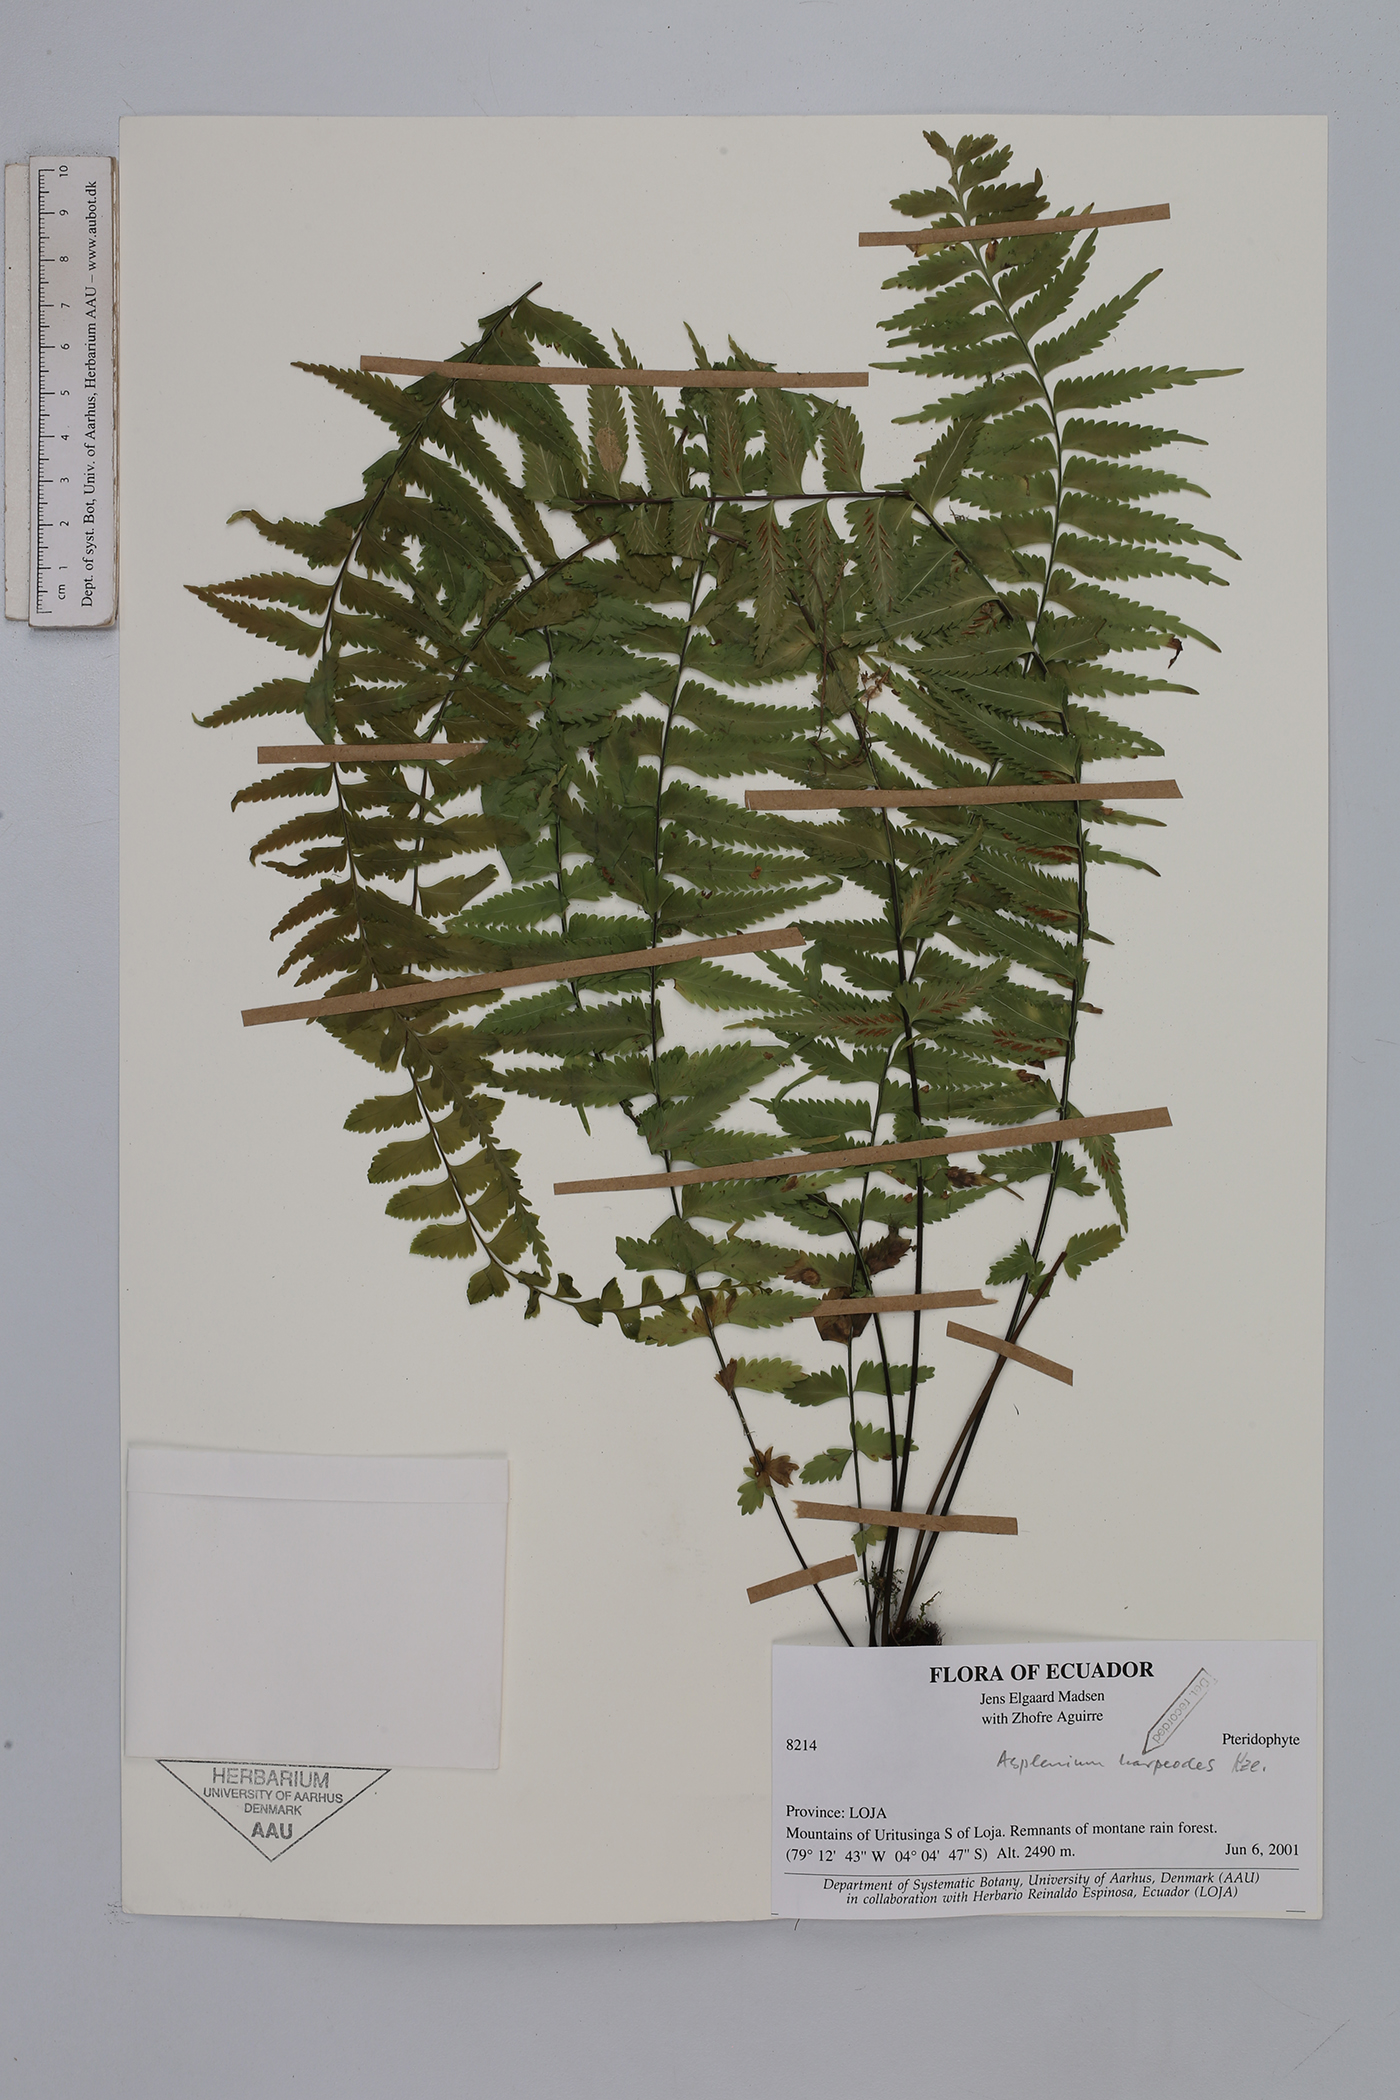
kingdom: Plantae
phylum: Tracheophyta
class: Polypodiopsida
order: Polypodiales
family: Aspleniaceae
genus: Asplenium
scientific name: Asplenium harpeodes
